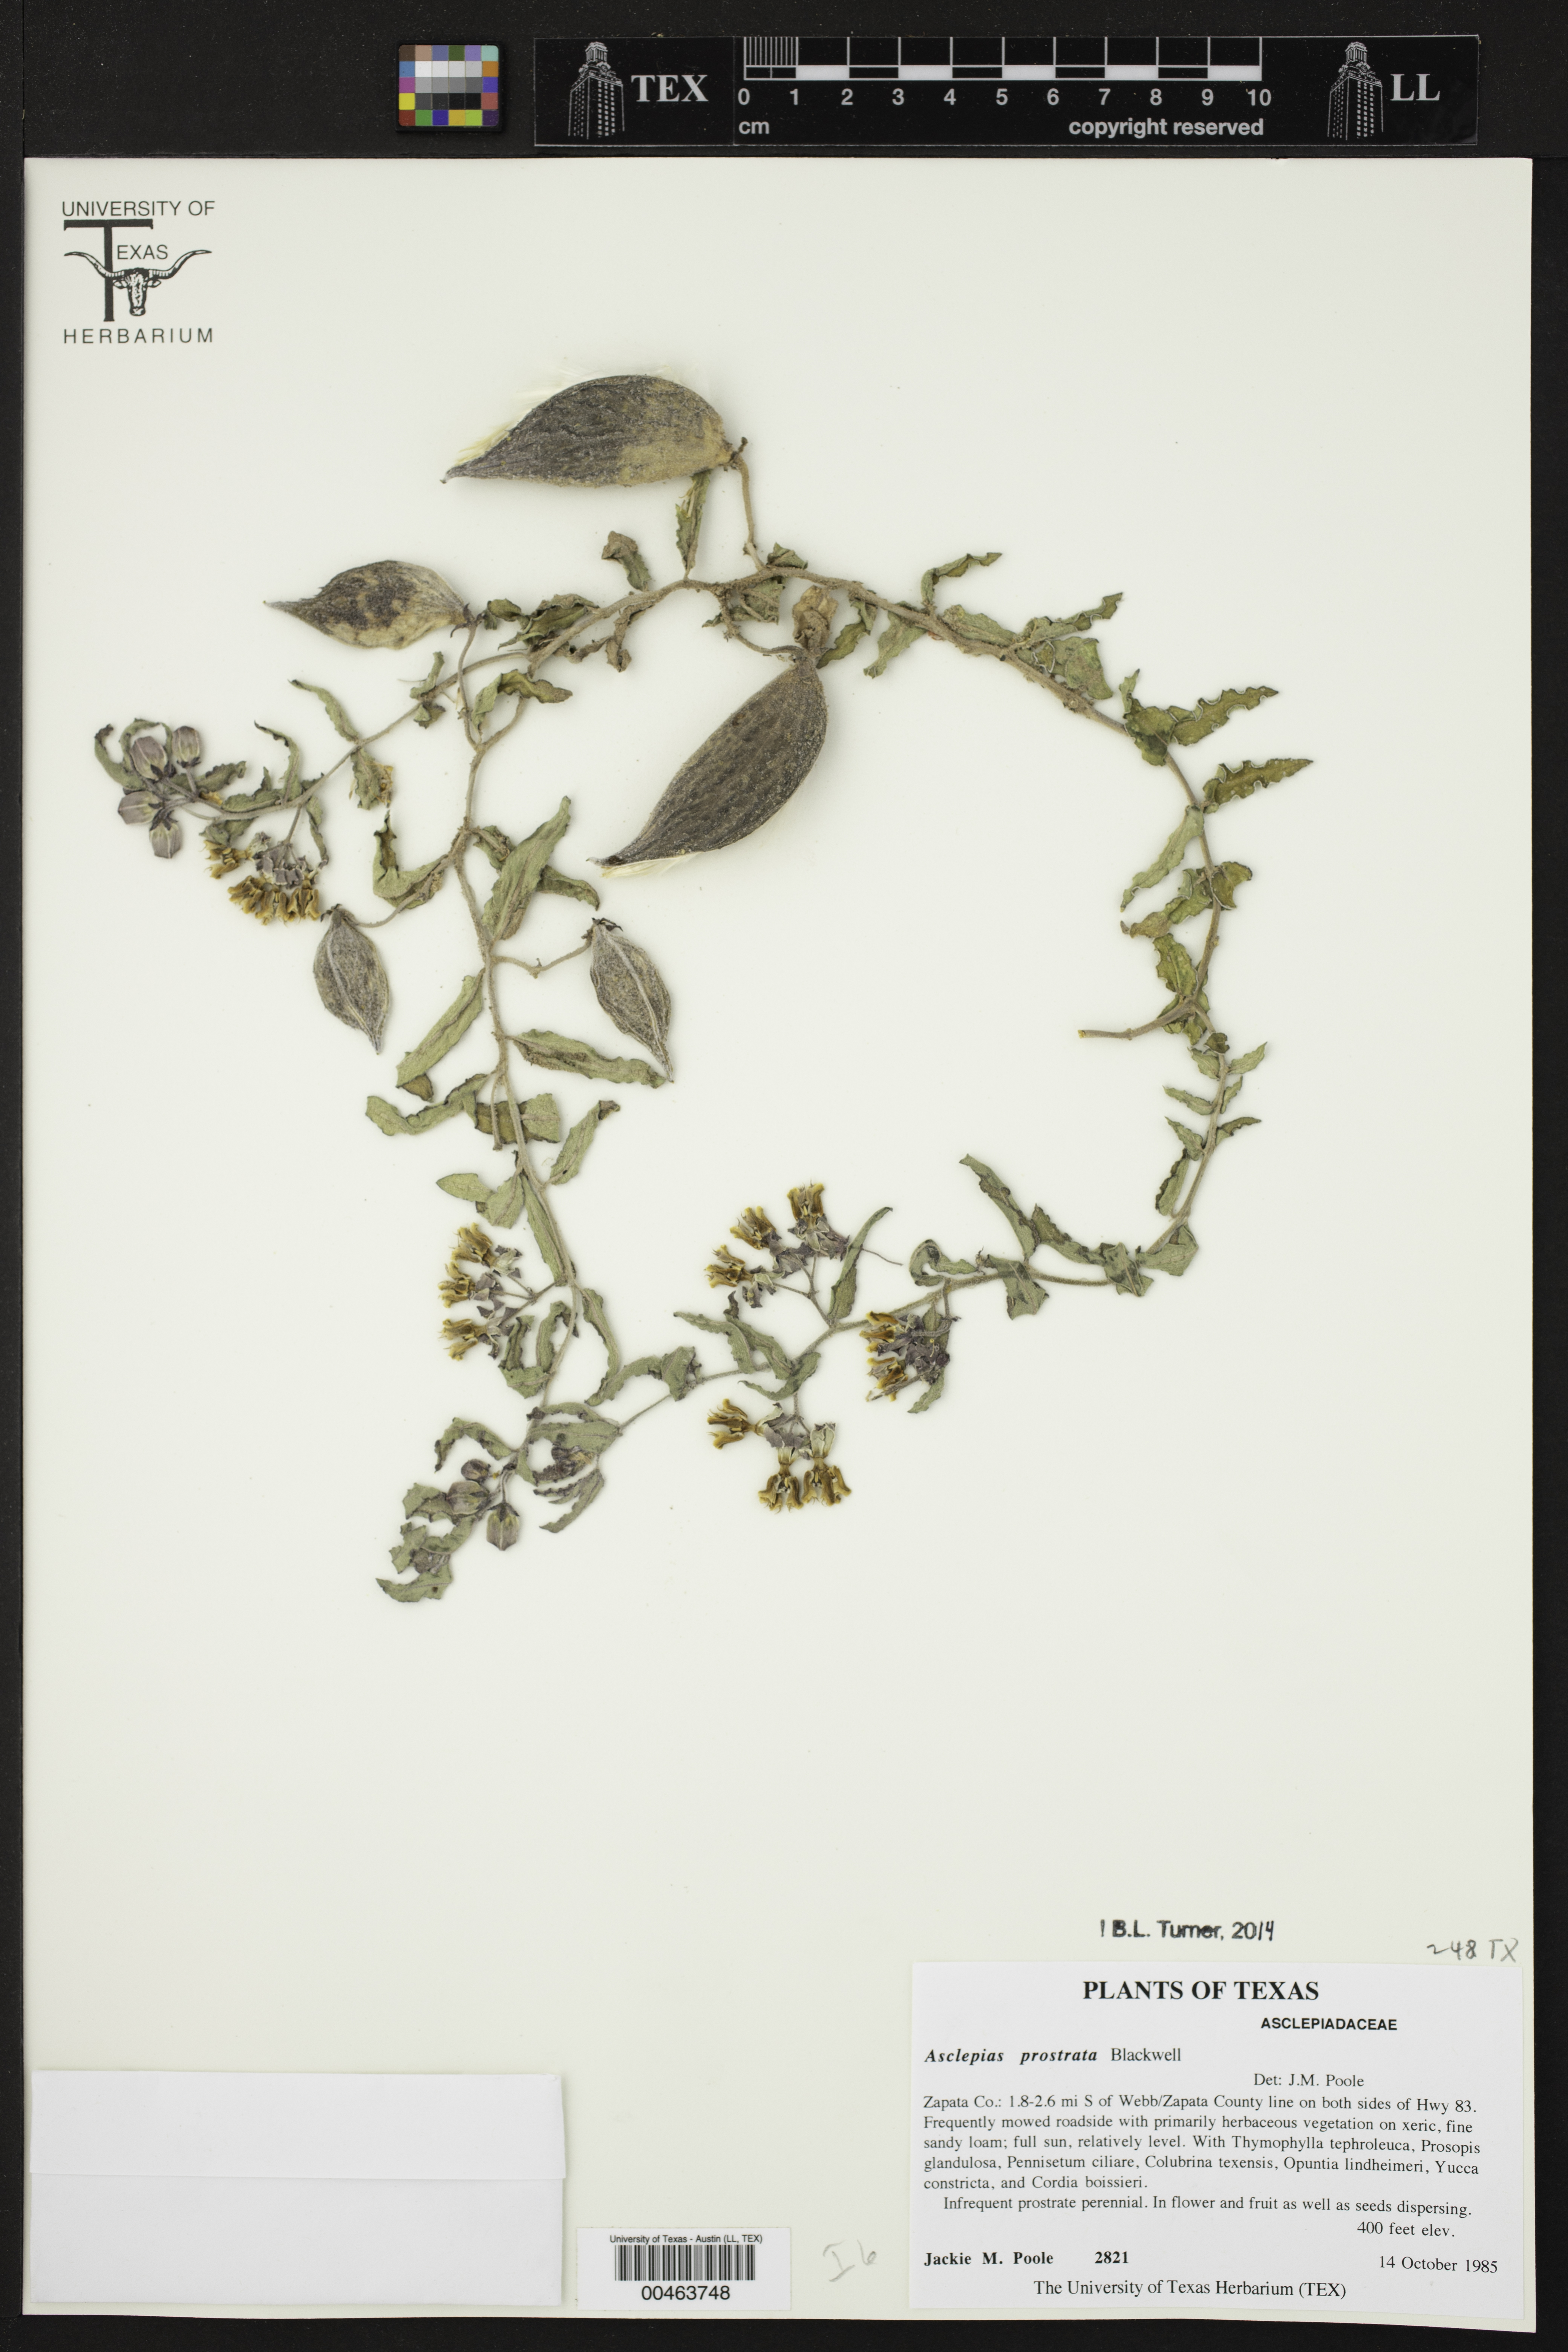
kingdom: Plantae
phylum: Tracheophyta
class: Magnoliopsida
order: Gentianales
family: Apocynaceae
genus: Asclepias
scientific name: Asclepias prostrata
